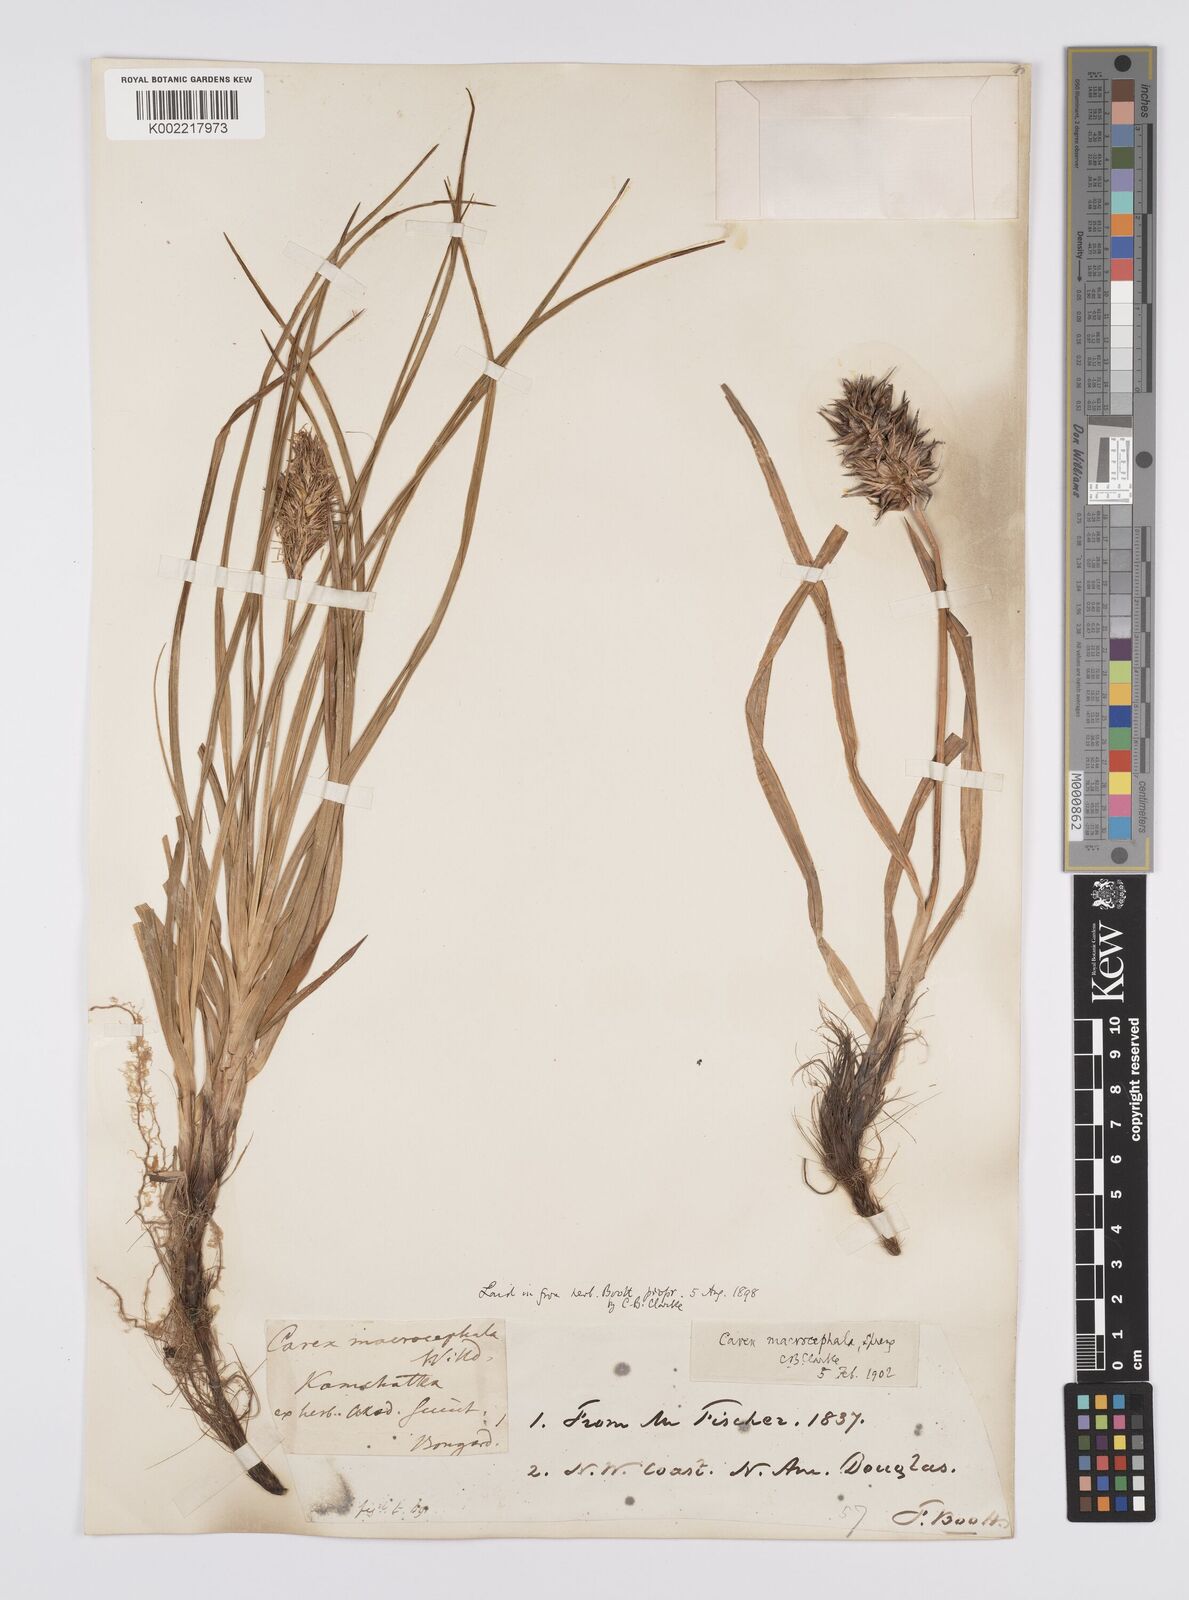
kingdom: Plantae
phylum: Tracheophyta
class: Liliopsida
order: Poales
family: Cyperaceae
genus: Carex
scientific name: Carex macrocephala
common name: Large-head sedge
